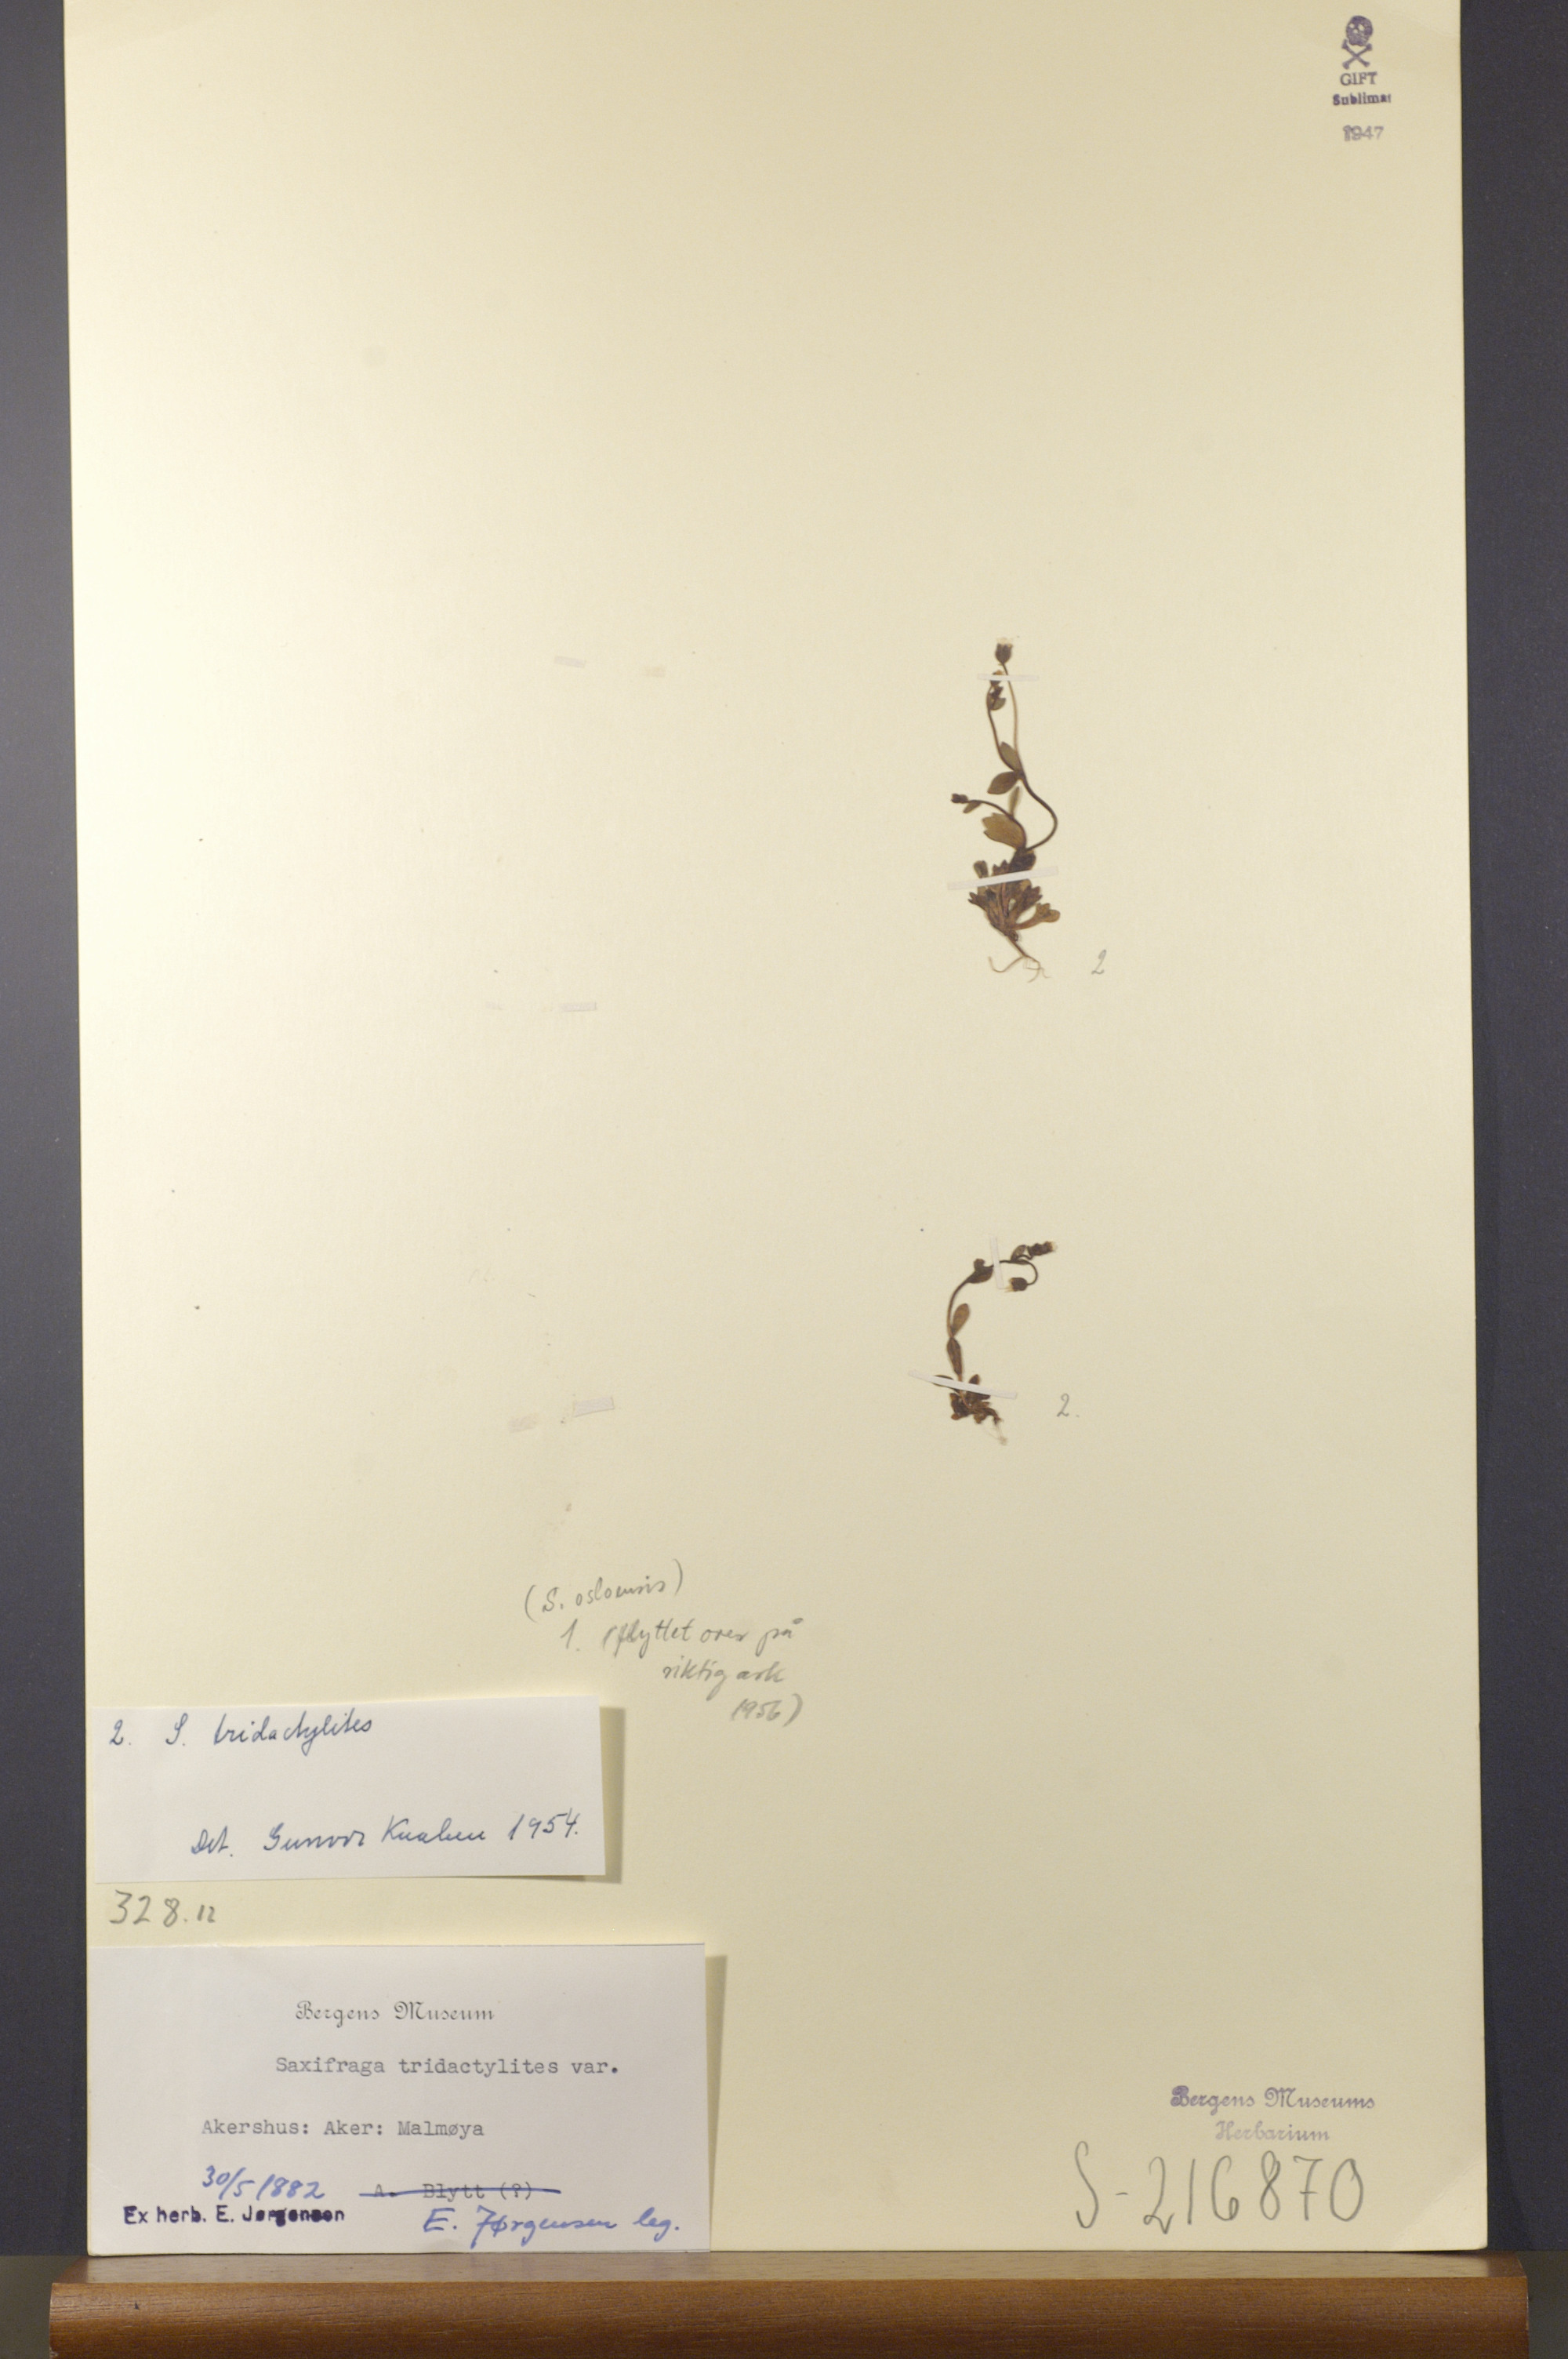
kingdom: Plantae
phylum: Tracheophyta
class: Magnoliopsida
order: Saxifragales
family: Saxifragaceae
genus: Saxifraga
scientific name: Saxifraga tridactylites
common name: Rue-leaved saxifrage
